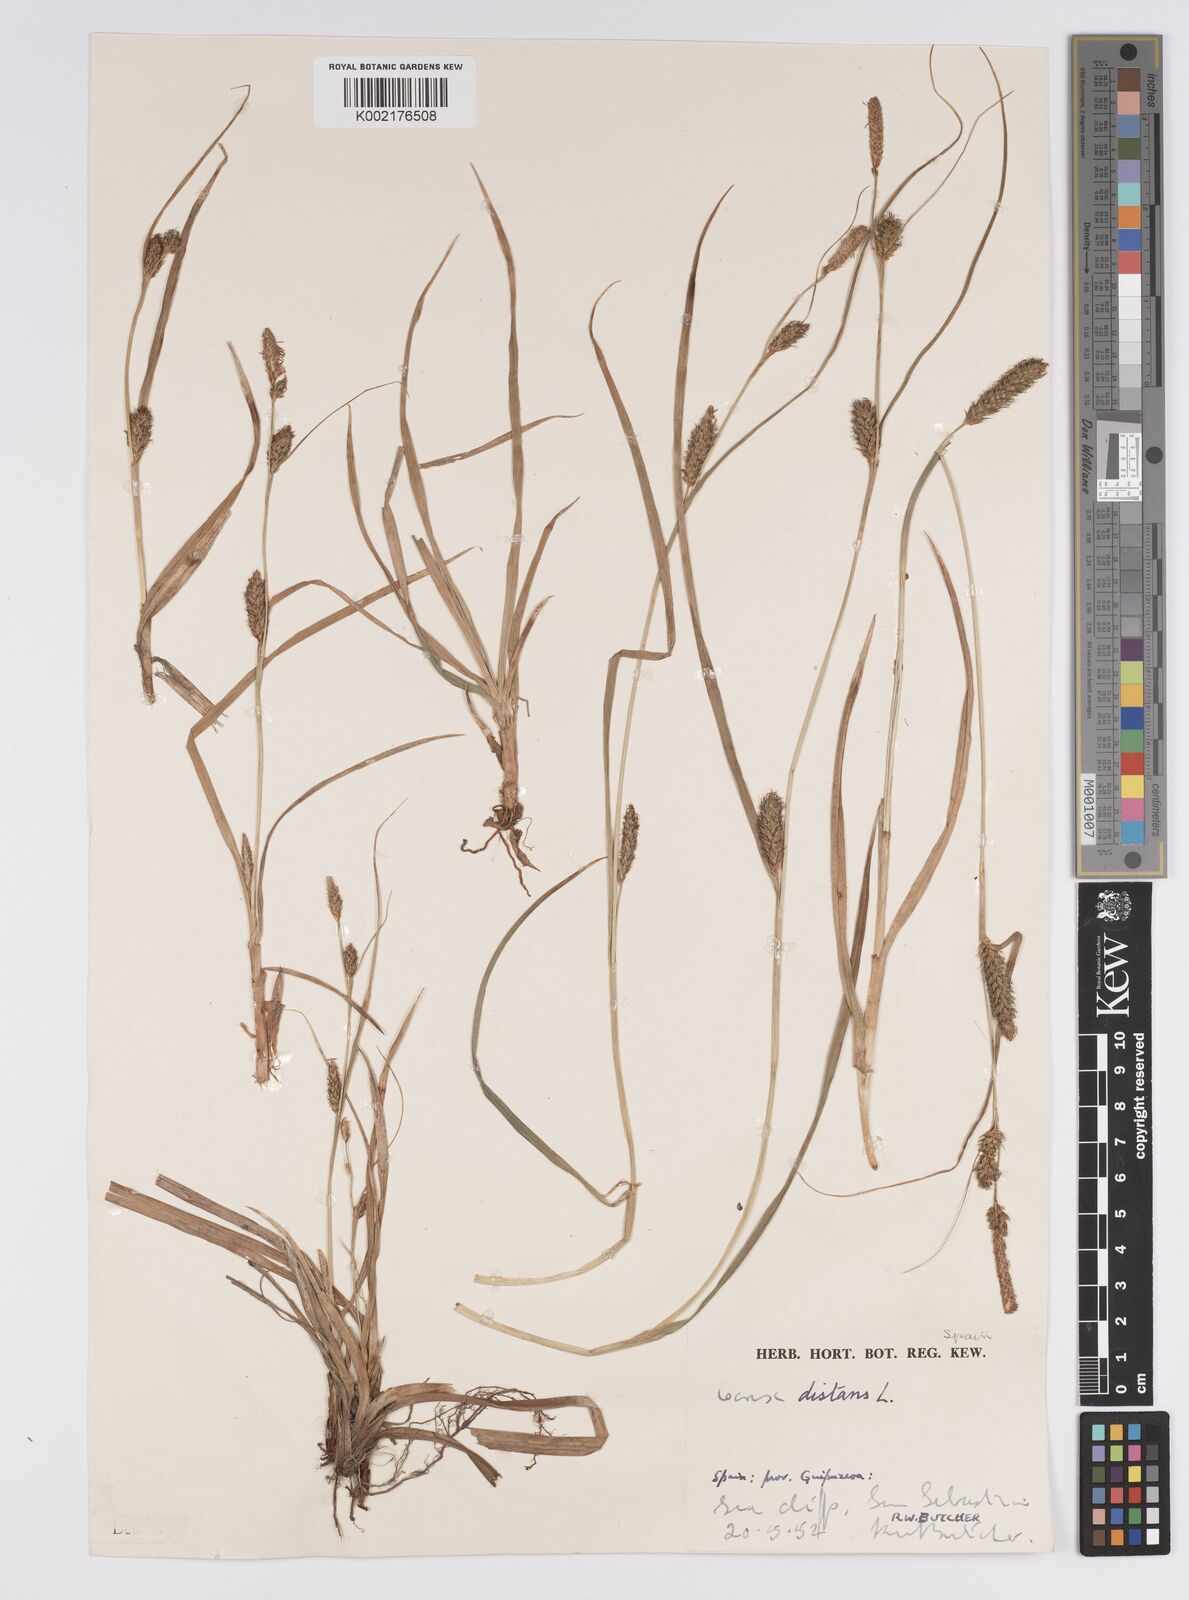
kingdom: Plantae
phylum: Tracheophyta
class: Liliopsida
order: Poales
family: Cyperaceae
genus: Carex
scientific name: Carex distans
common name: Distant sedge
